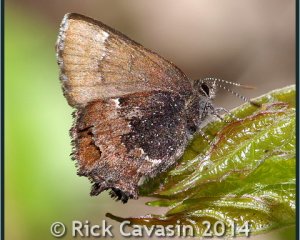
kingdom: Animalia
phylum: Arthropoda
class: Insecta
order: Lepidoptera
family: Lycaenidae
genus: Incisalia
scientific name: Incisalia henrici
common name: Henry's Elfin
